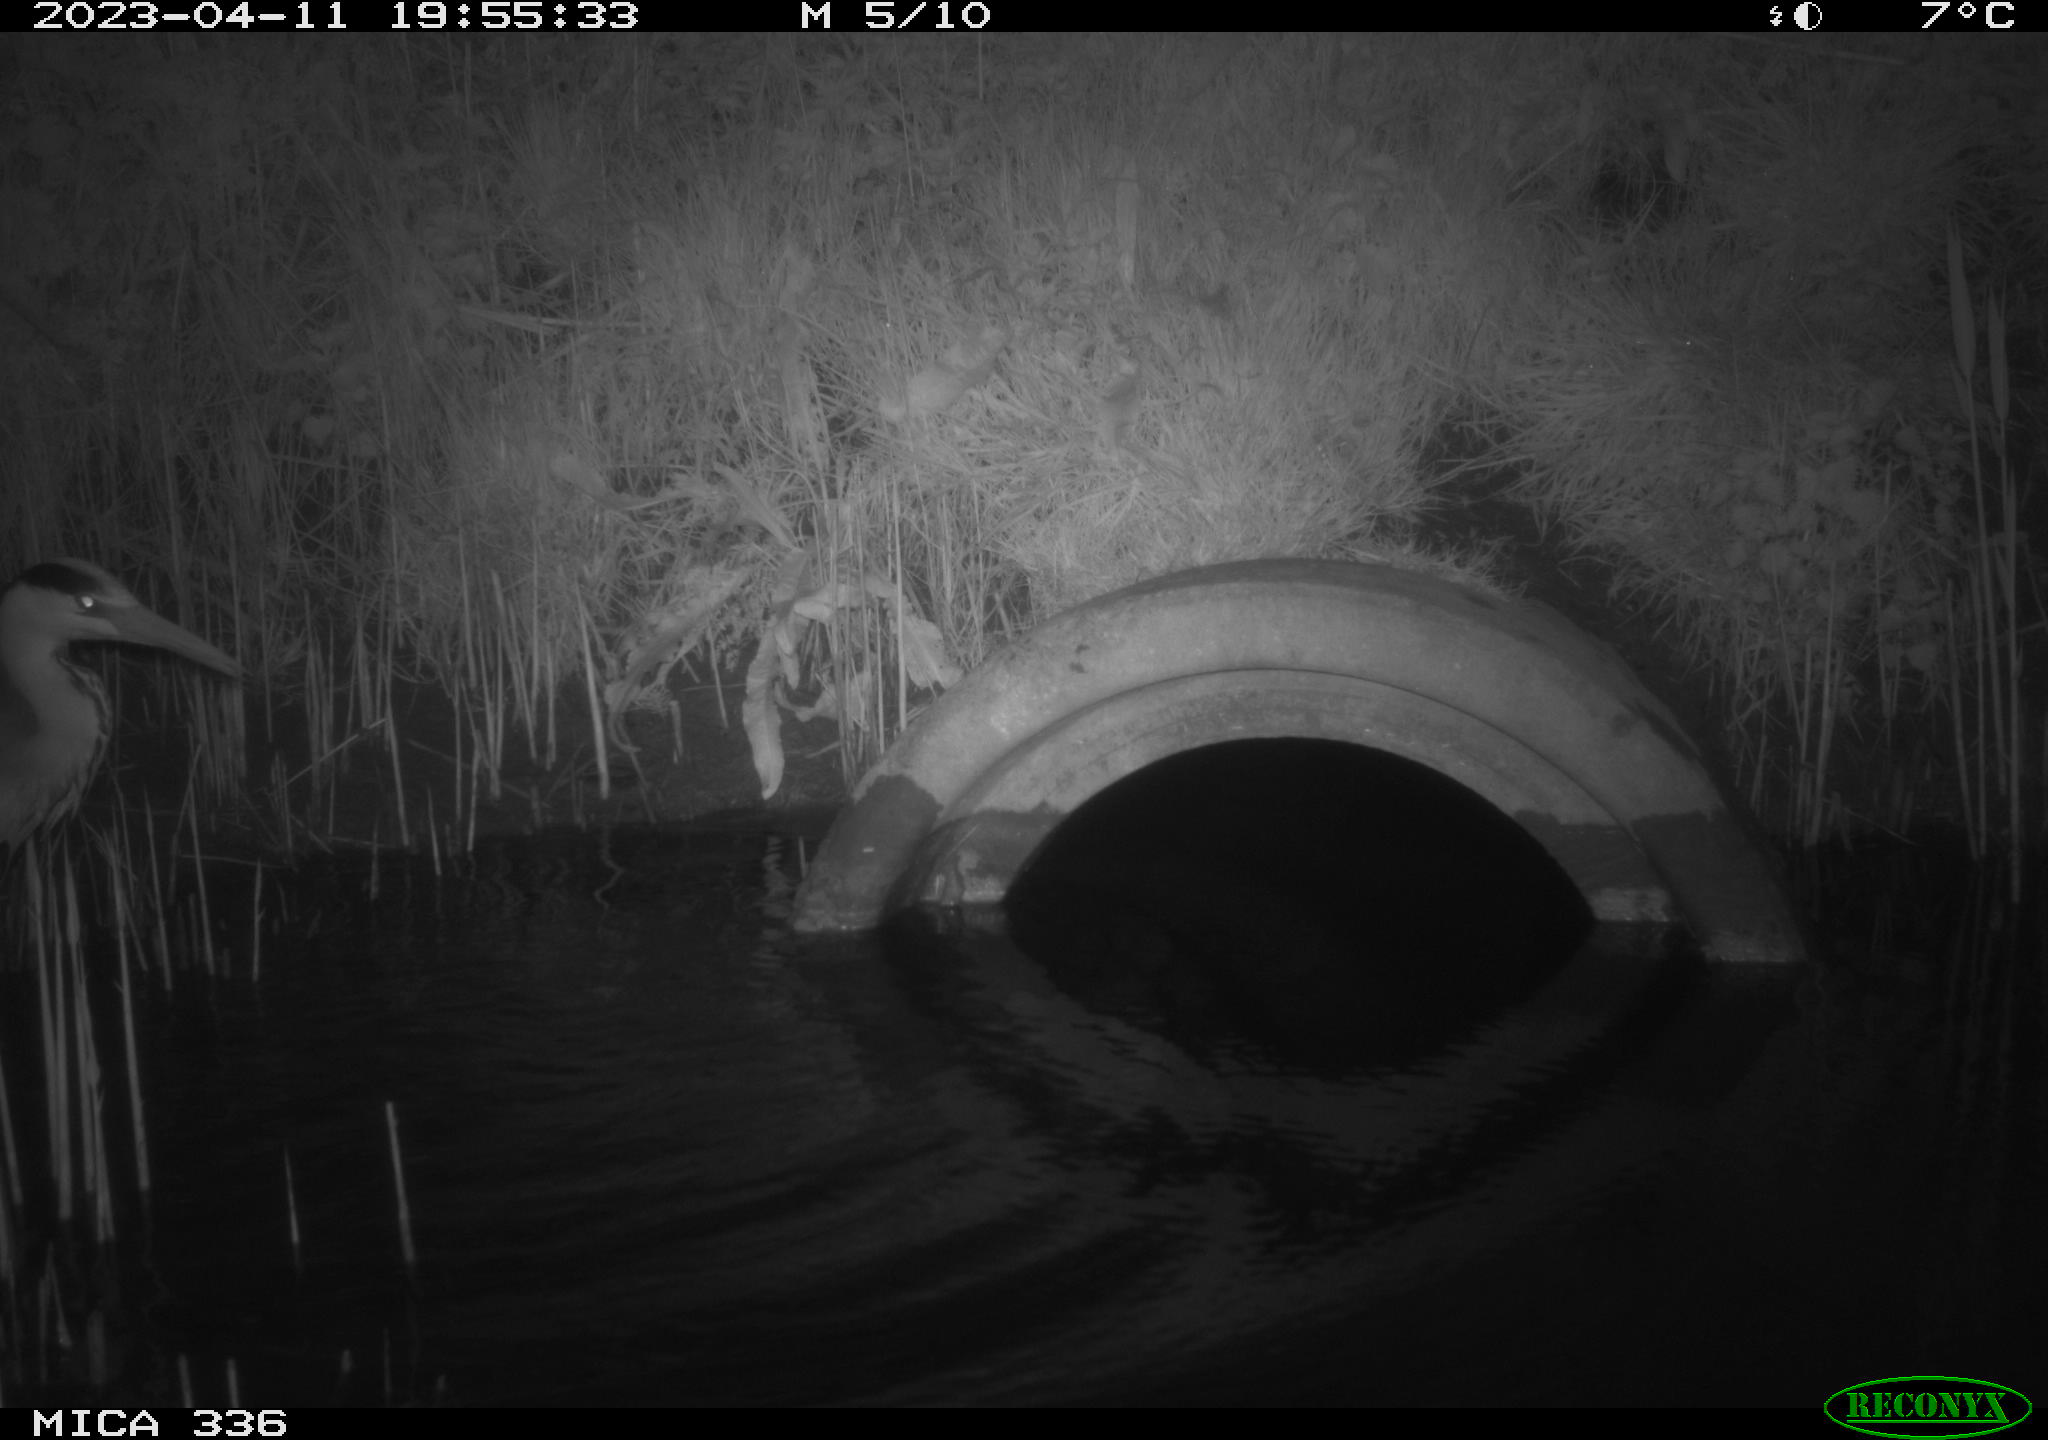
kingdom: Animalia
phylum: Chordata
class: Aves
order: Pelecaniformes
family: Ardeidae
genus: Ardea
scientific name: Ardea cinerea
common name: Grey heron
